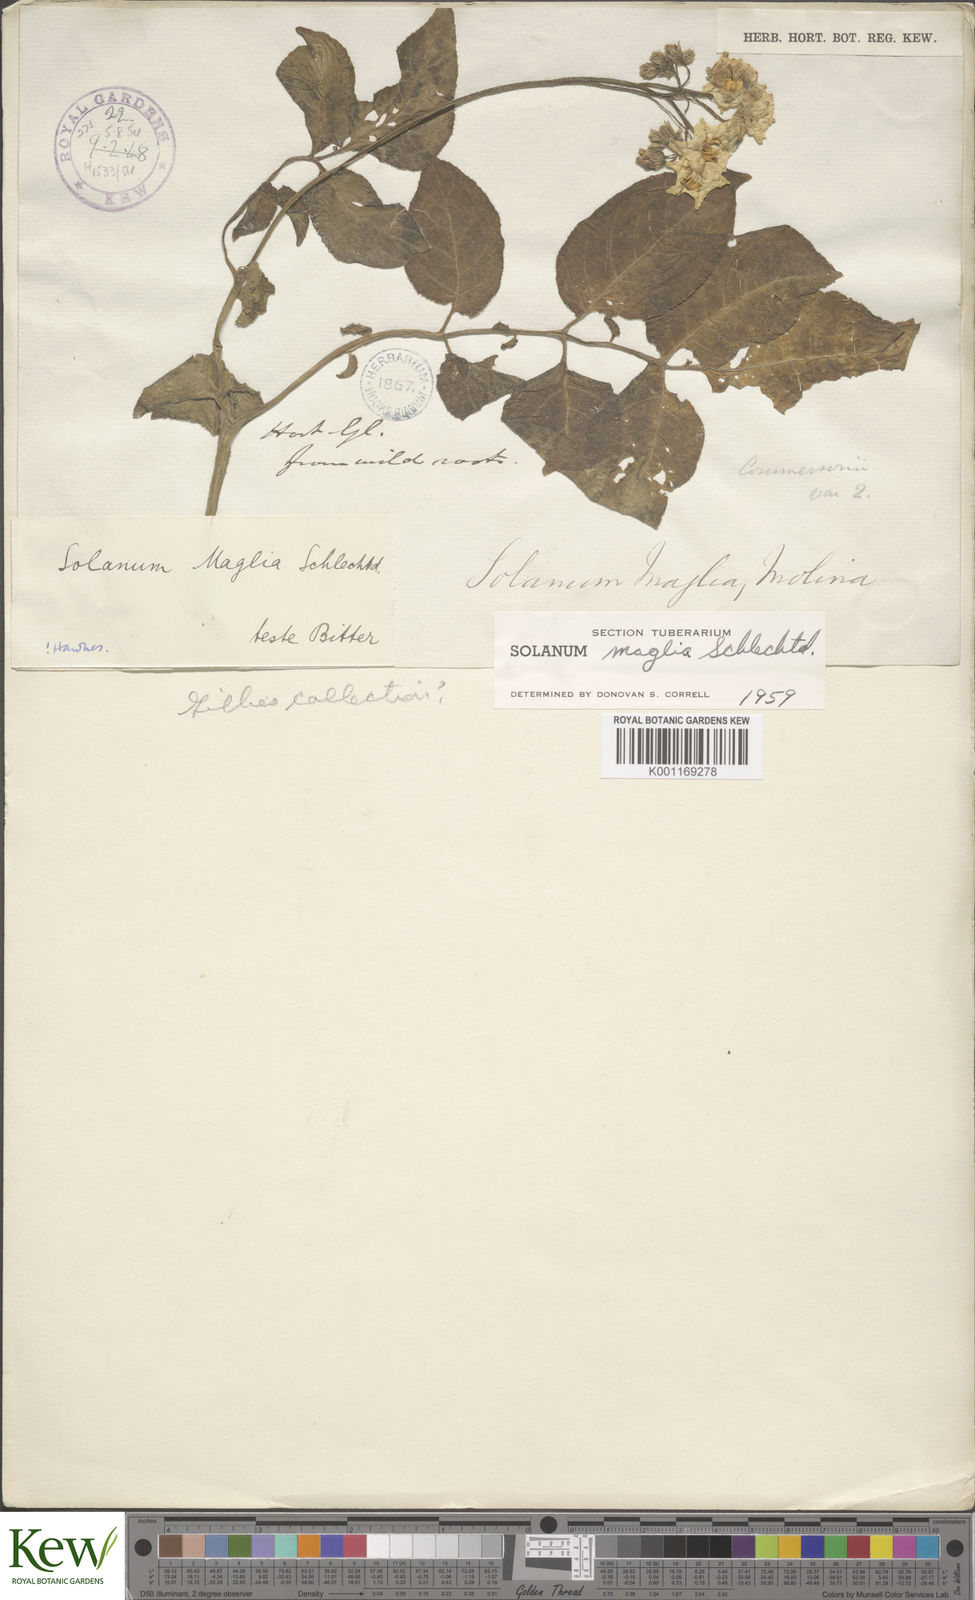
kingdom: Plantae
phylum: Tracheophyta
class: Magnoliopsida
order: Solanales
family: Solanaceae
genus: Solanum
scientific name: Solanum maglia
